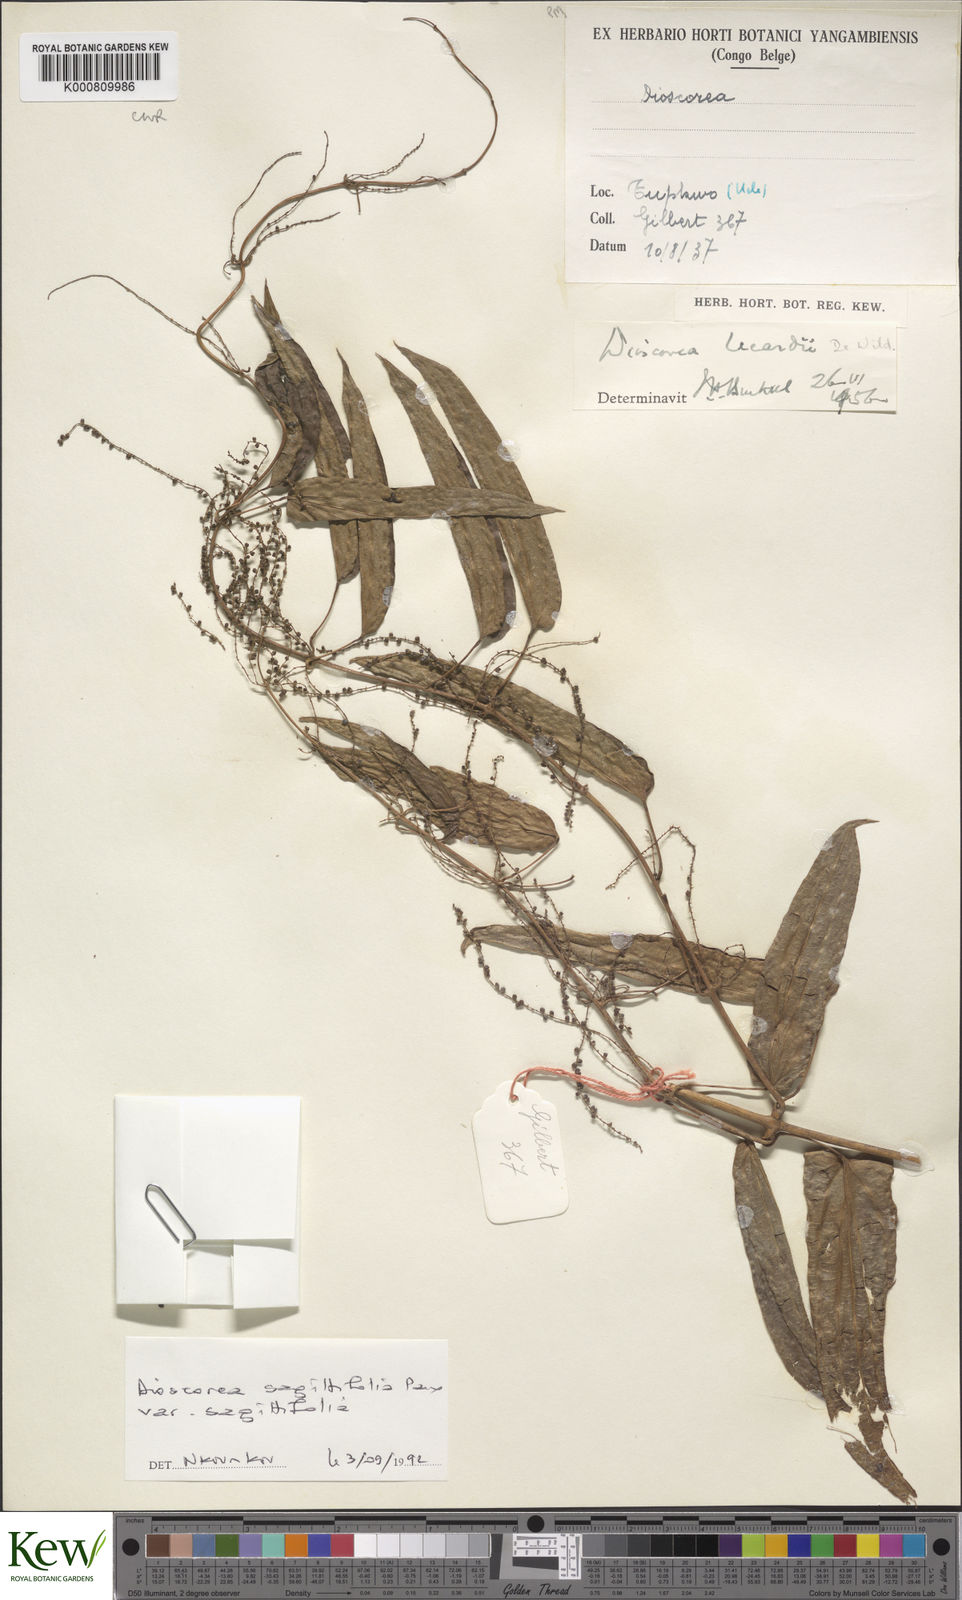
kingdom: Plantae
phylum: Tracheophyta
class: Liliopsida
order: Dioscoreales
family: Dioscoreaceae
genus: Dioscorea
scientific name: Dioscorea sagittifolia
